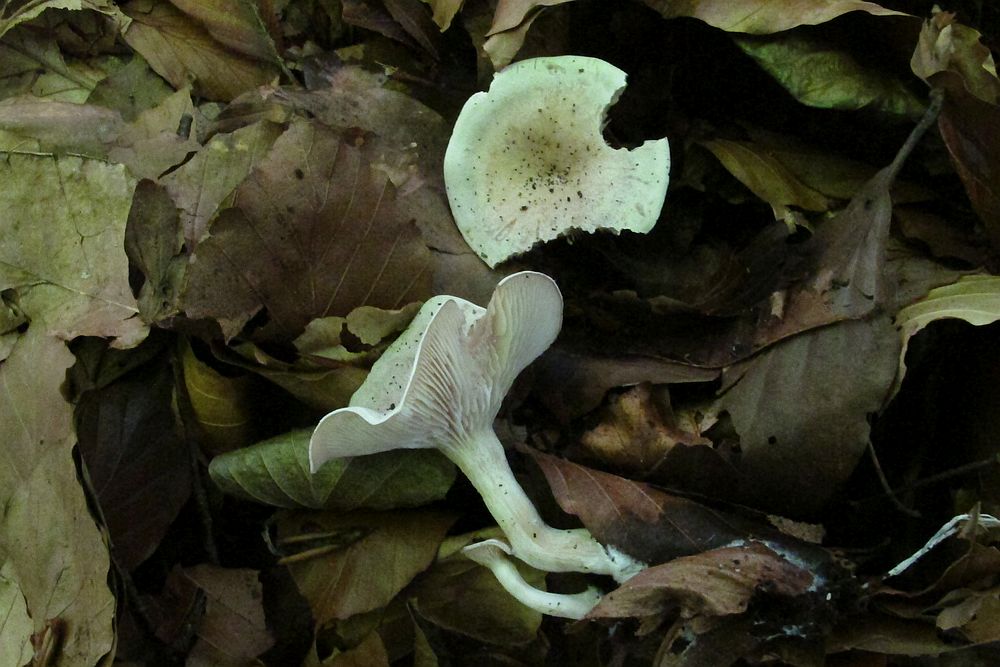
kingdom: Fungi
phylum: Basidiomycota
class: Agaricomycetes
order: Agaricales
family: Tricholomataceae
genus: Clitocybe
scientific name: Clitocybe phaeophthalma
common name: stinkende tragthat
